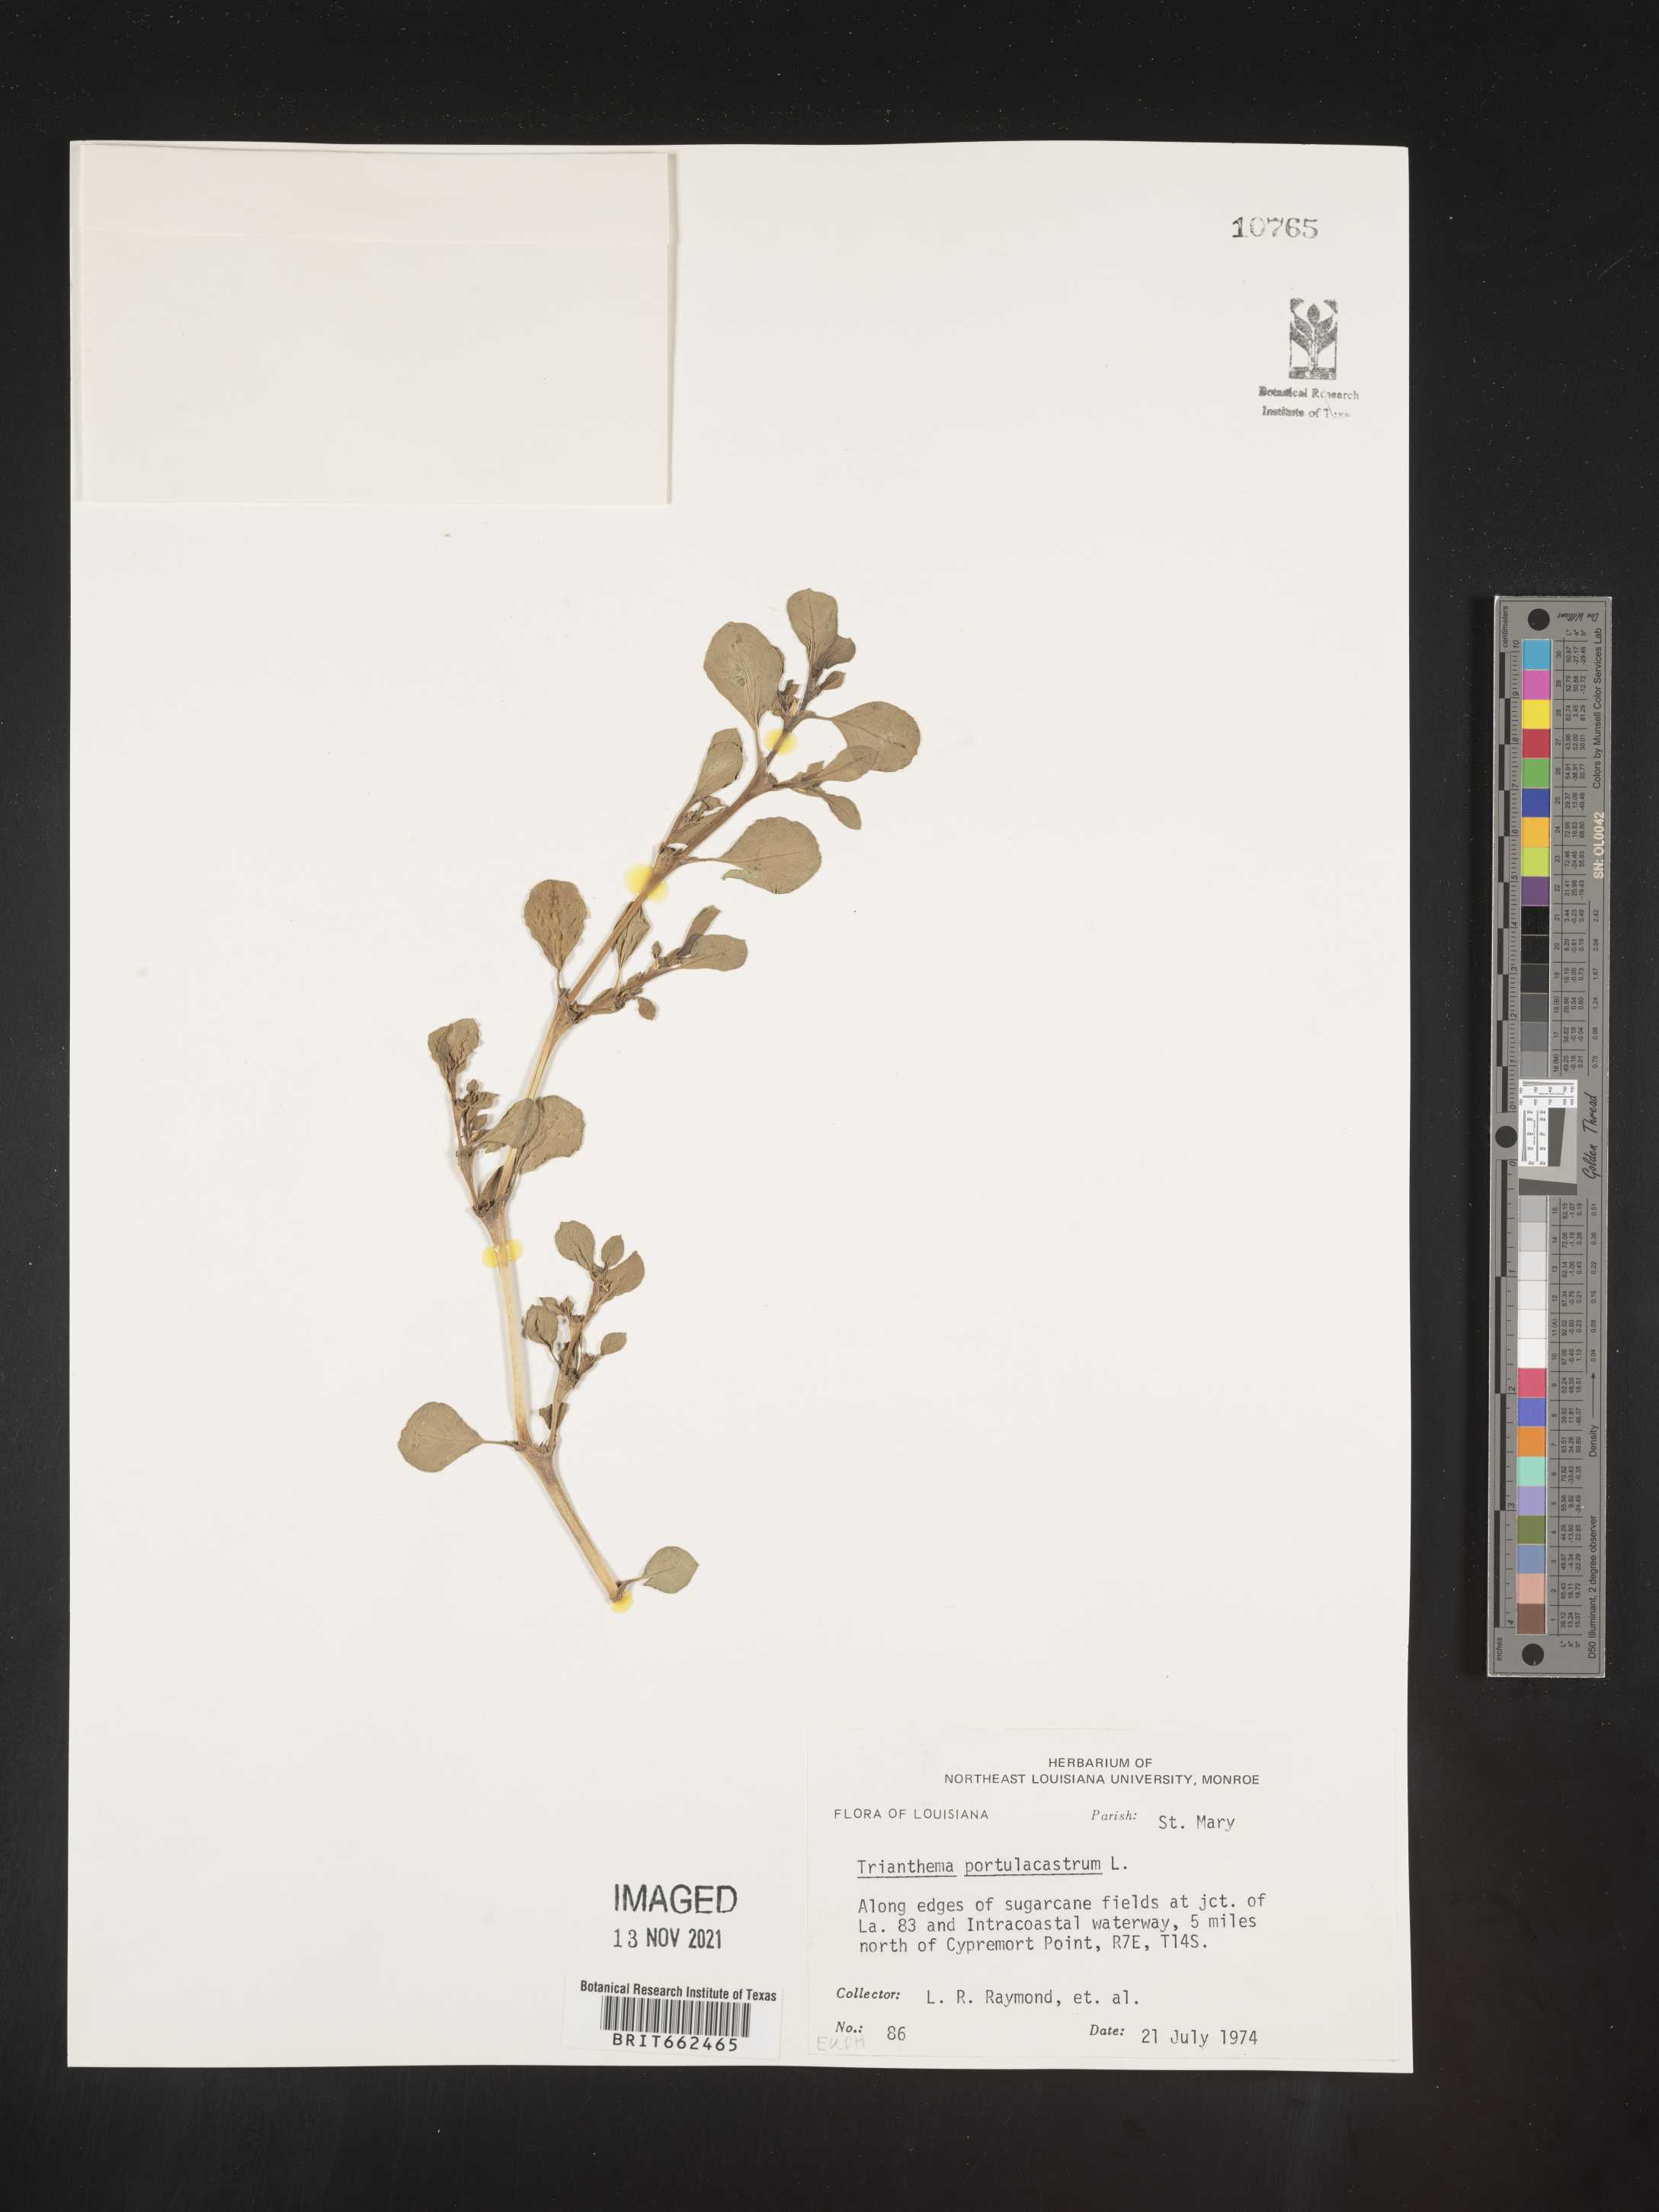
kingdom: Plantae
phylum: Tracheophyta
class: Magnoliopsida
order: Caryophyllales
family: Aizoaceae
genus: Trianthema
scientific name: Trianthema
